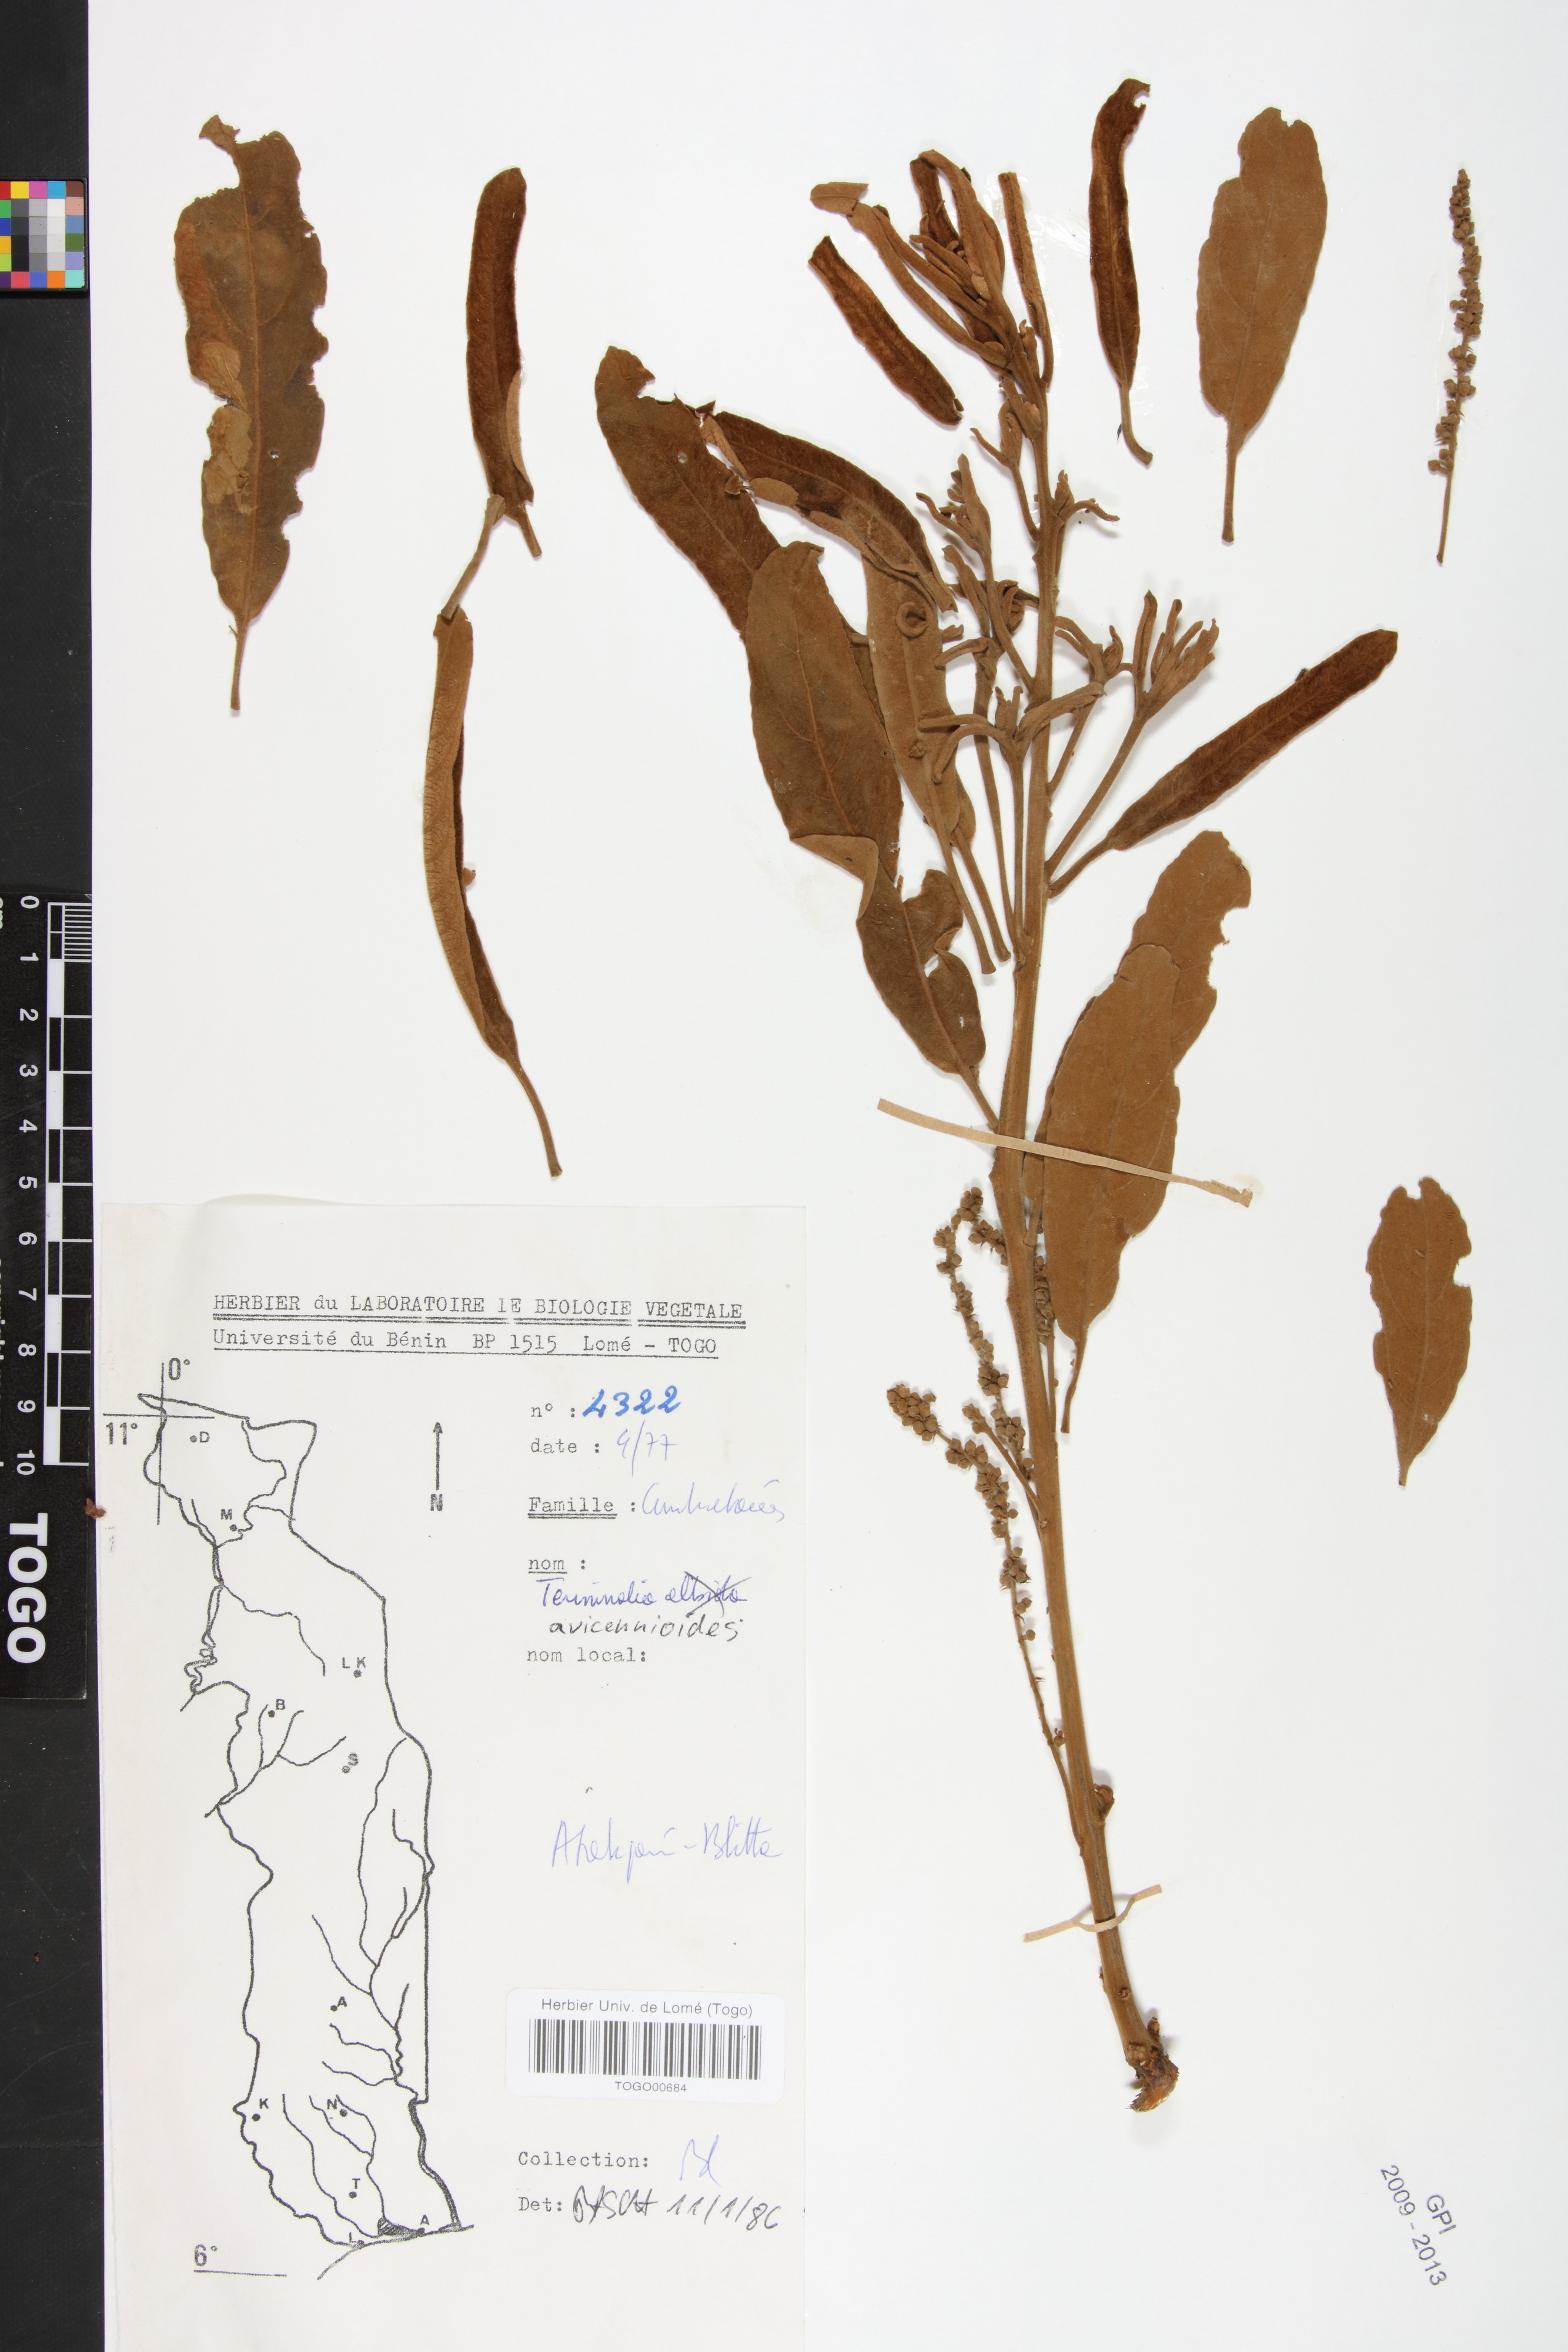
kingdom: Plantae
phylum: Tracheophyta
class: Magnoliopsida
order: Myrtales
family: Combretaceae
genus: Terminalia
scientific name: Terminalia avicennioides
